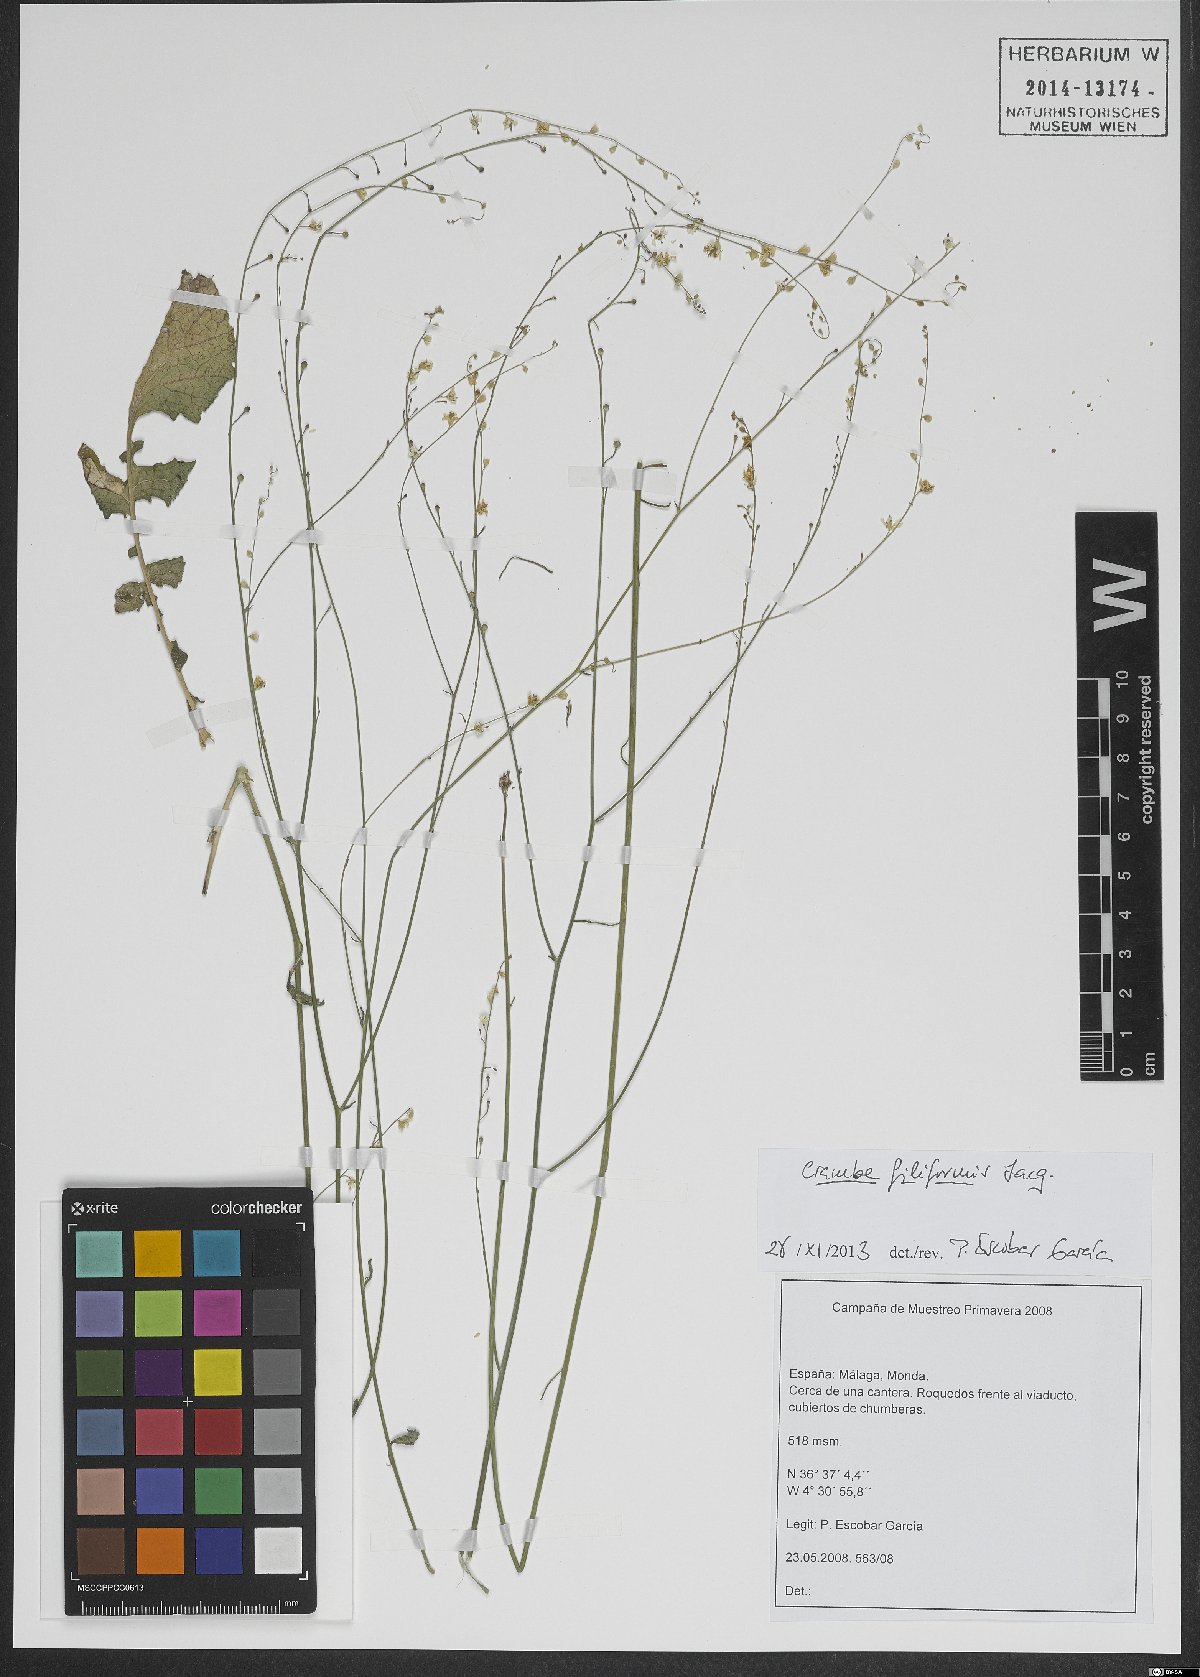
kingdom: Plantae
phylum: Tracheophyta
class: Magnoliopsida
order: Brassicales
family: Brassicaceae
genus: Crambe
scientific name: Crambe filiformis
